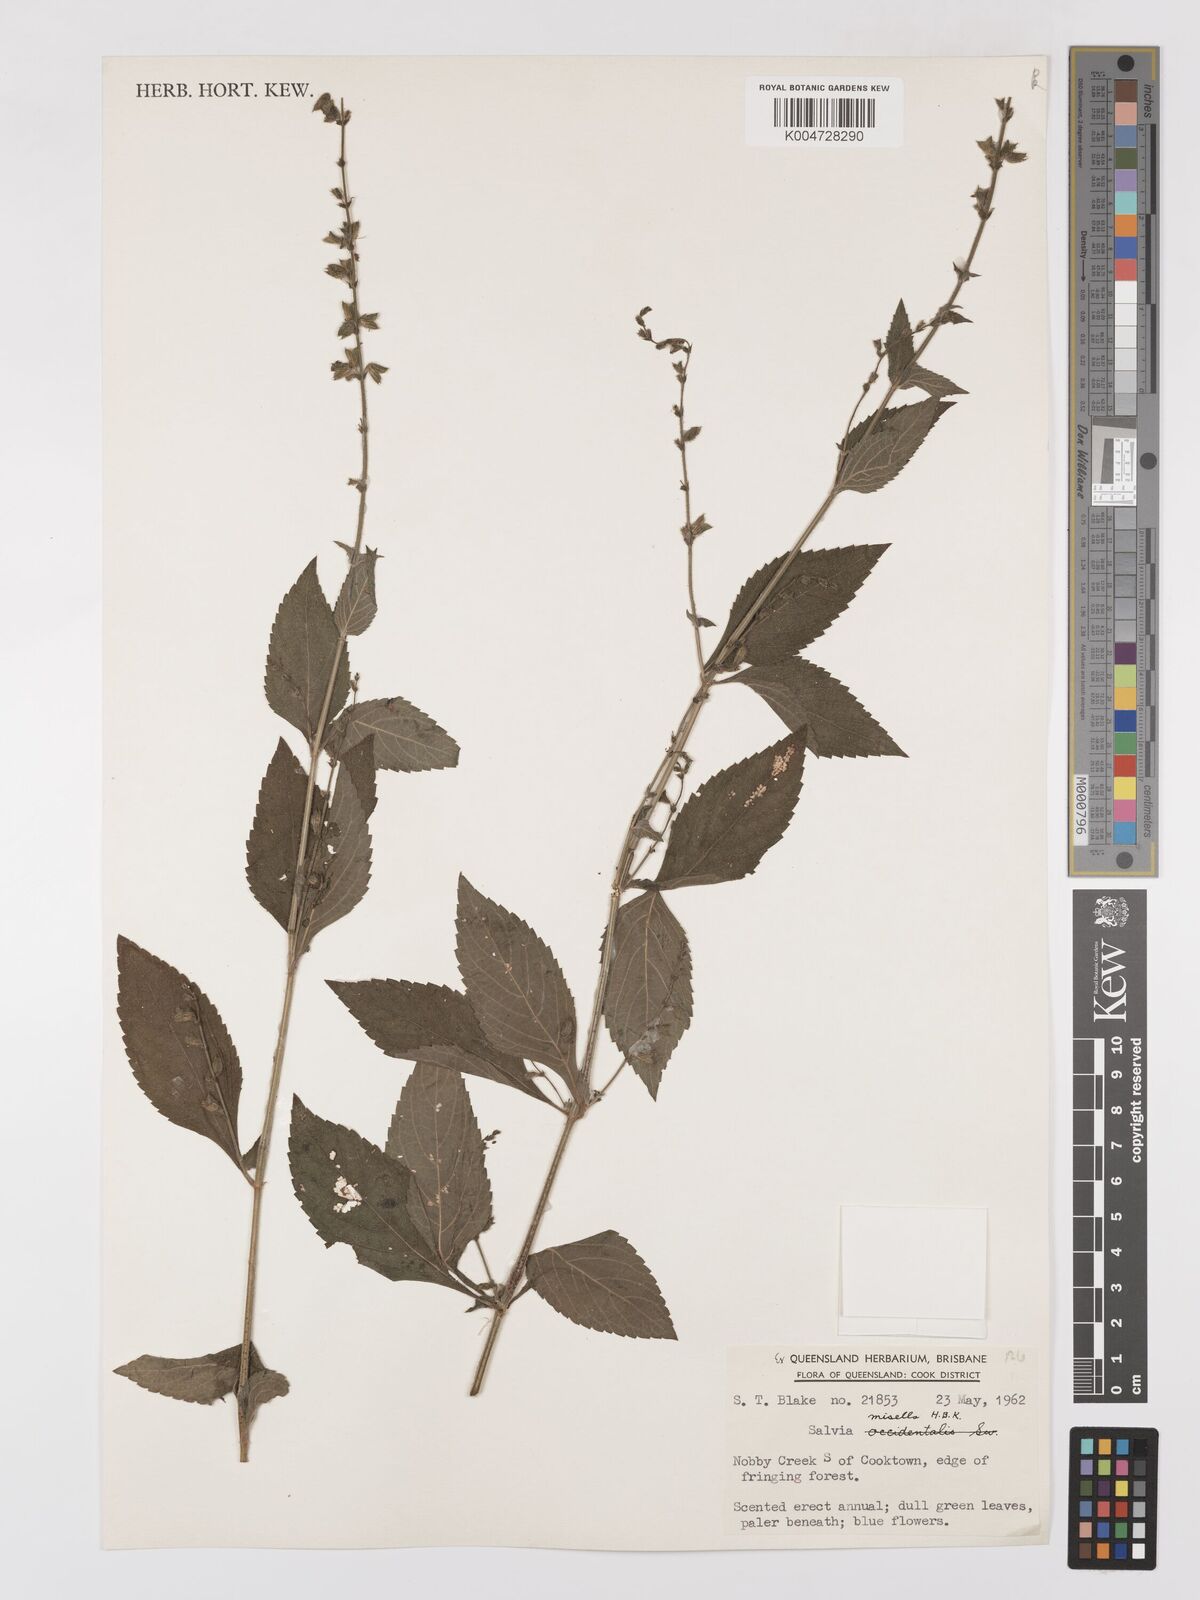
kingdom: Plantae
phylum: Tracheophyta
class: Magnoliopsida
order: Lamiales
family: Lamiaceae
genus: Salvia
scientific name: Salvia misella
